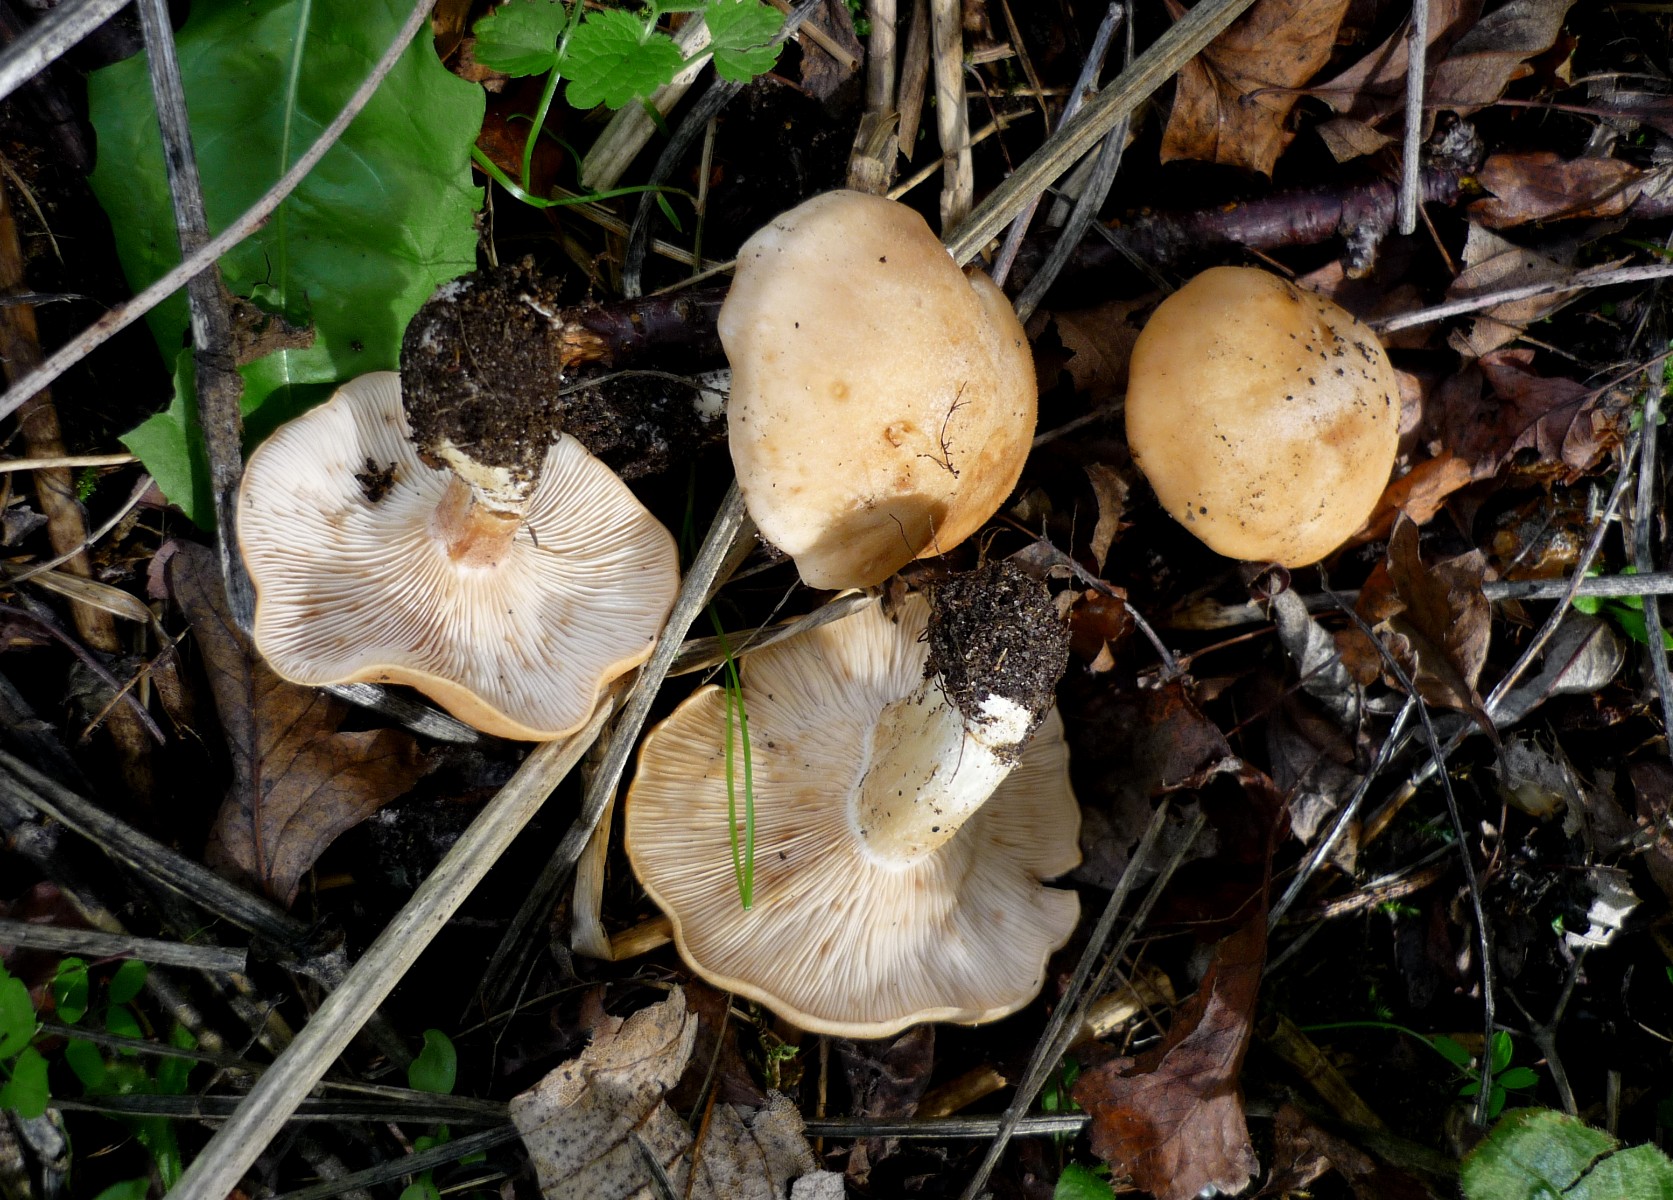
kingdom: Fungi
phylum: Basidiomycota
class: Agaricomycetes
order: Agaricales
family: Entolomataceae
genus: Clitopilus
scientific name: Clitopilus geminus
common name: kødfarvet troldhat
